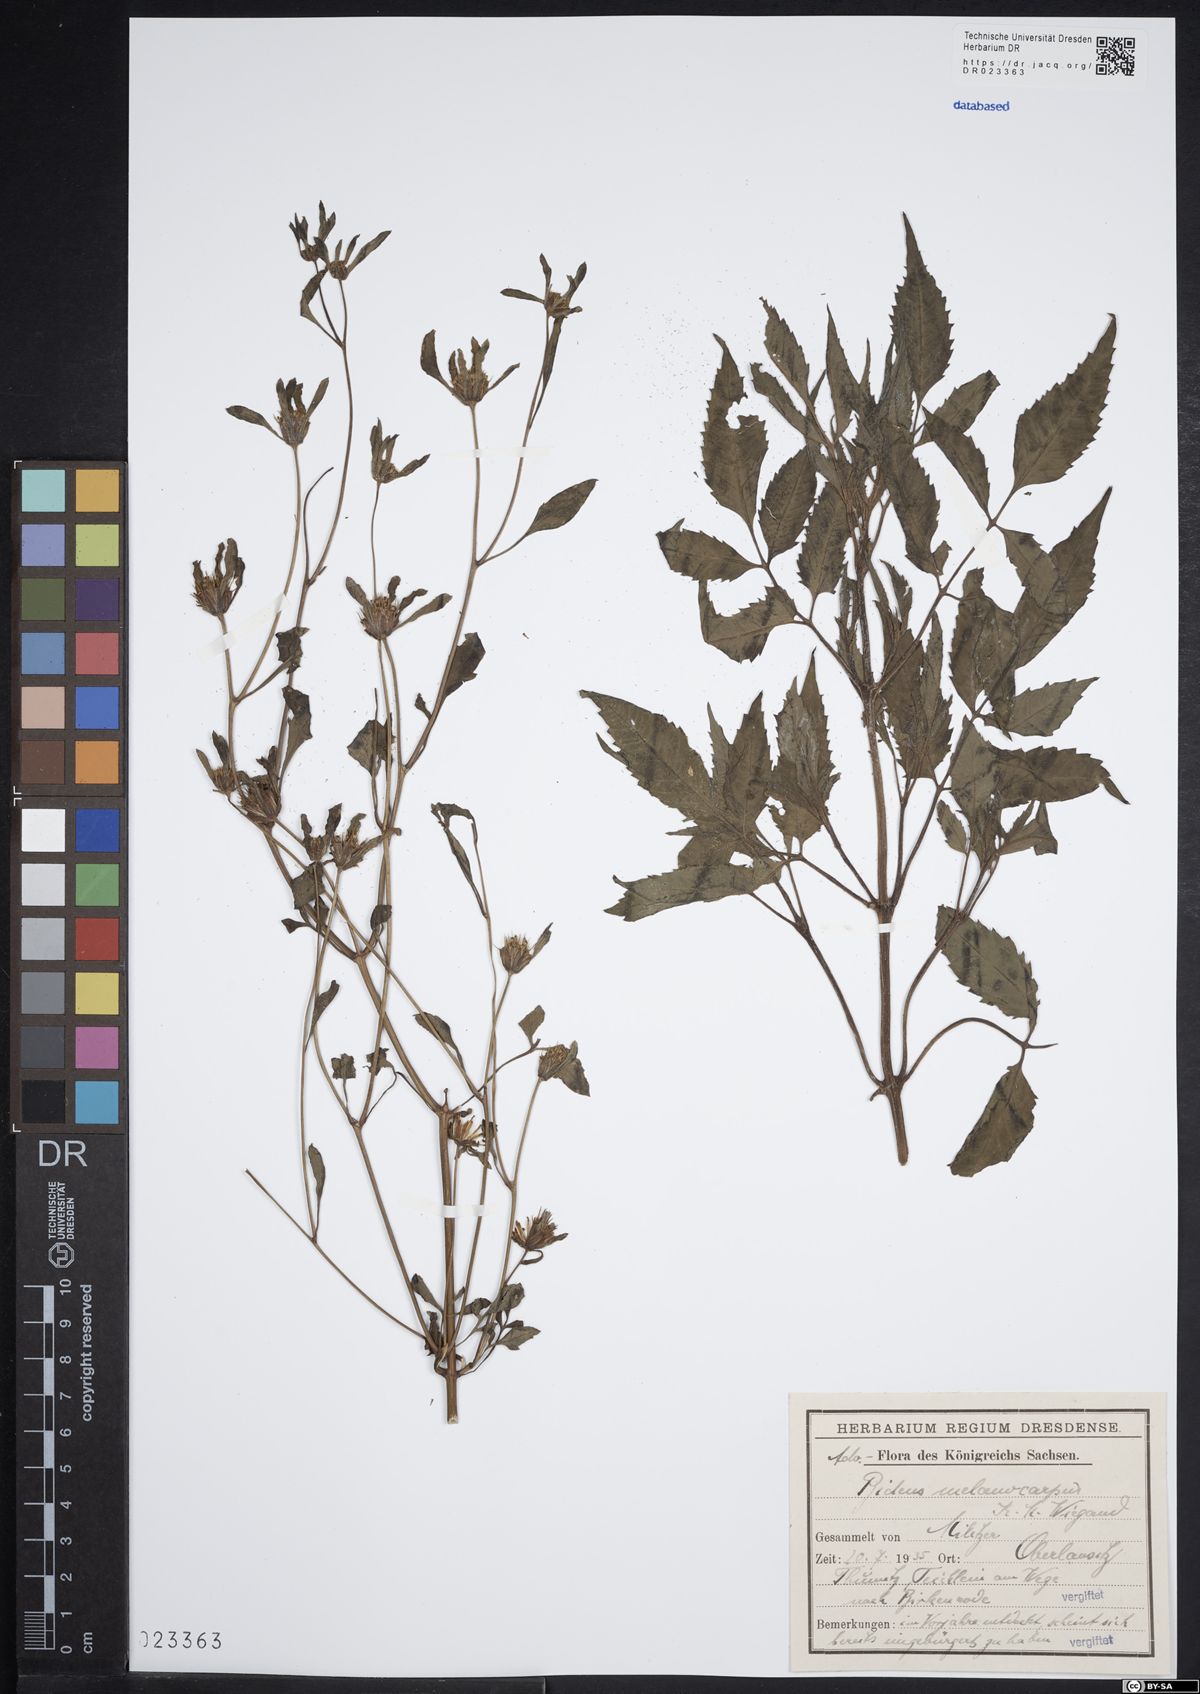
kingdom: Plantae
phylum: Tracheophyta
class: Magnoliopsida
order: Asterales
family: Asteraceae
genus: Bidens
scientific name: Bidens frondosa
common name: Beggarticks
